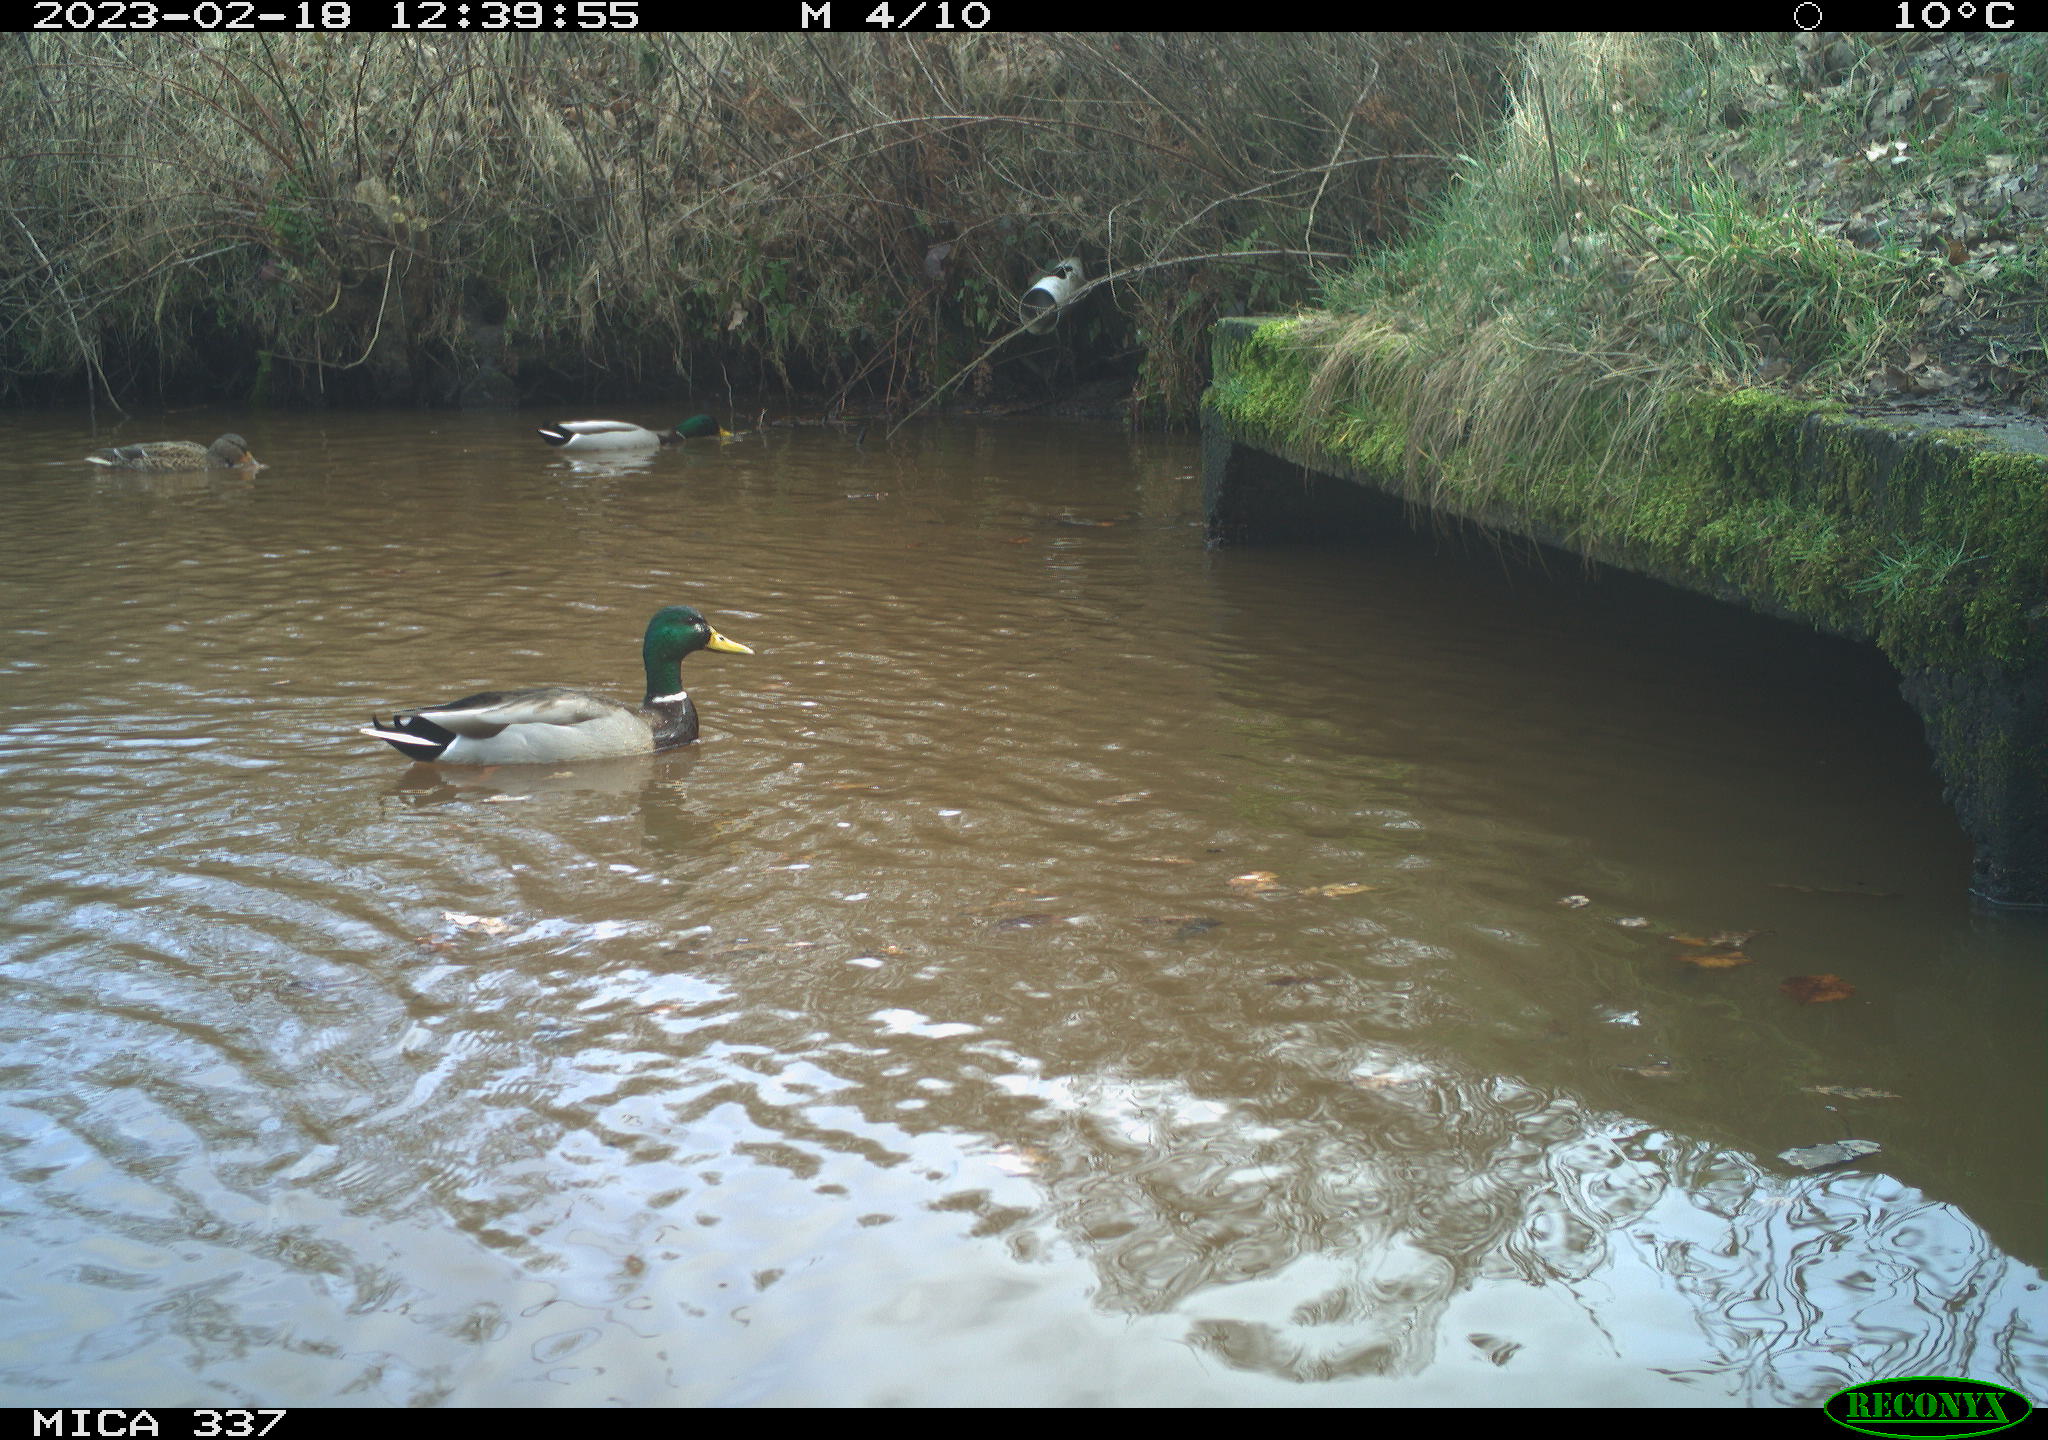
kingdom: Animalia
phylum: Chordata
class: Aves
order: Anseriformes
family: Anatidae
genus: Anas
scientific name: Anas
